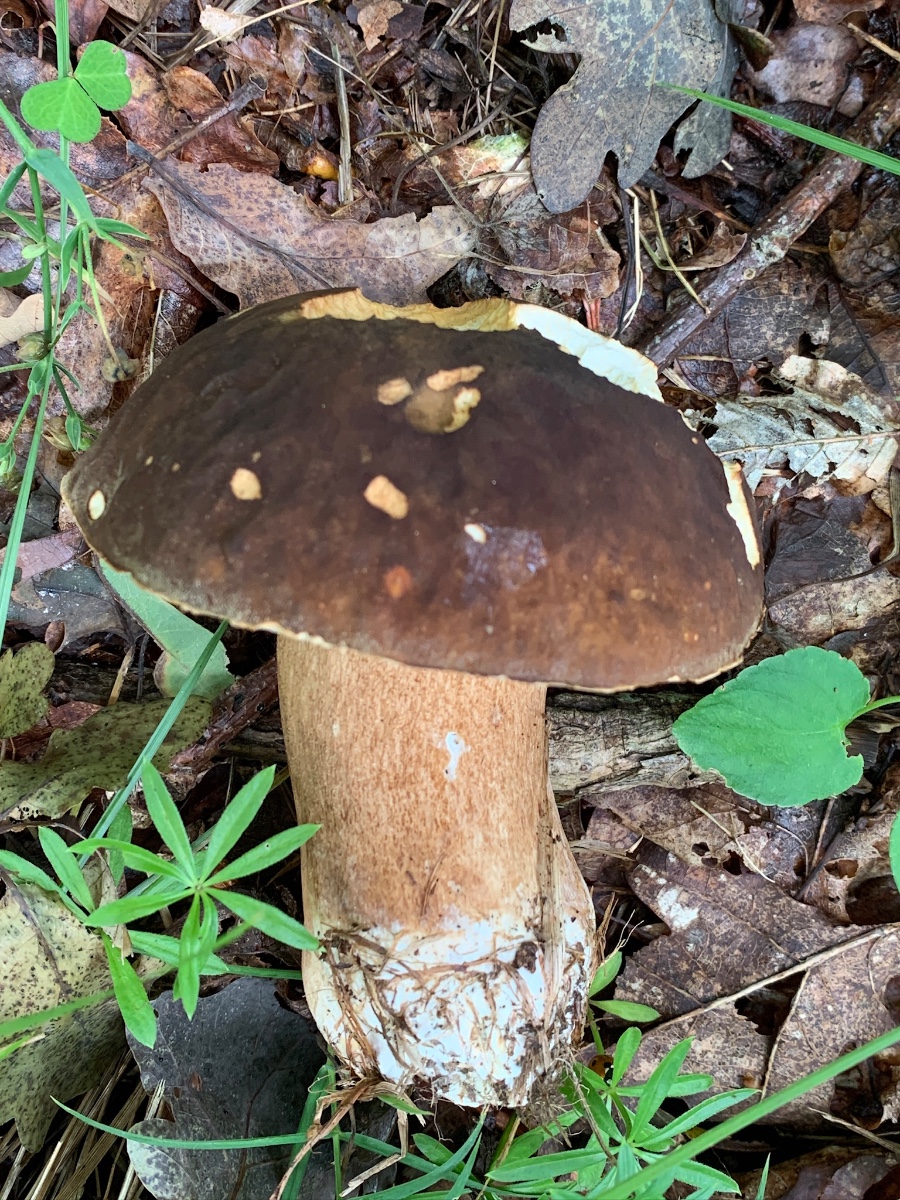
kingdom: Fungi
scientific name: Fungi
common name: bronze-rørhat
